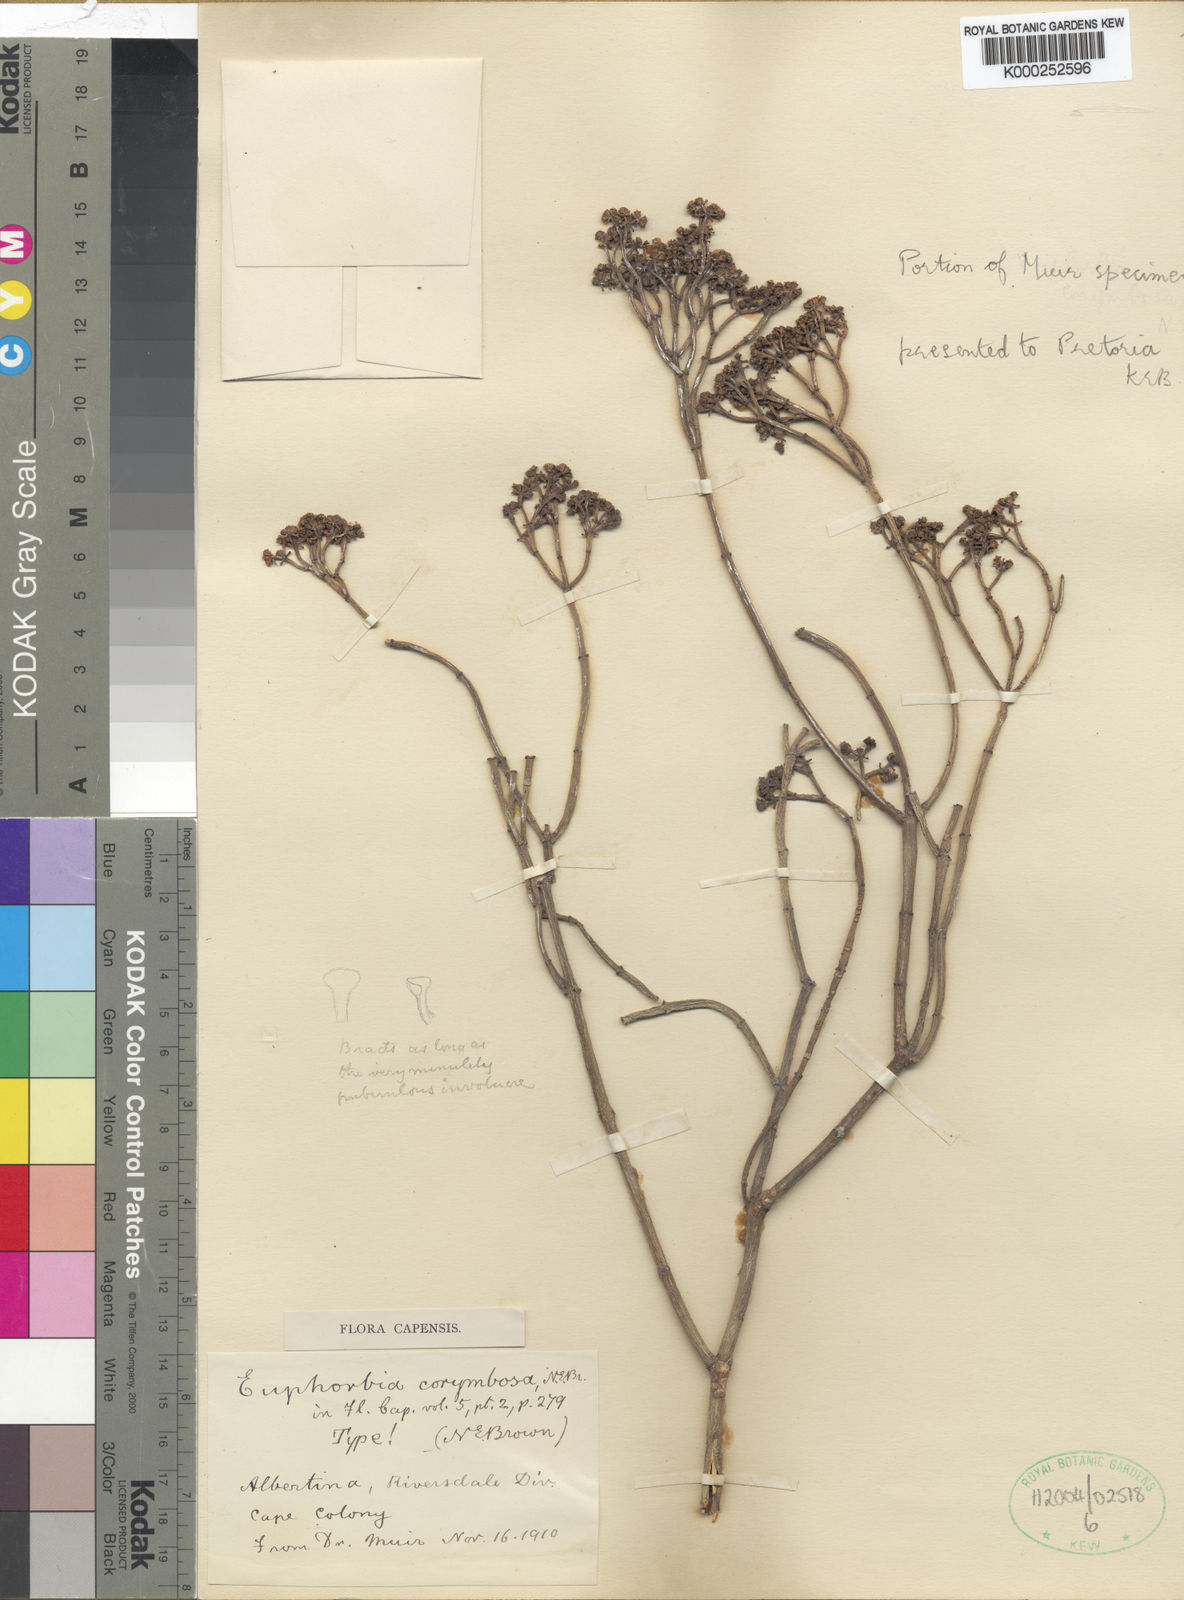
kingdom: Plantae
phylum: Tracheophyta
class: Magnoliopsida
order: Malpighiales
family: Euphorbiaceae
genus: Euphorbia
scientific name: Euphorbia burmanni
